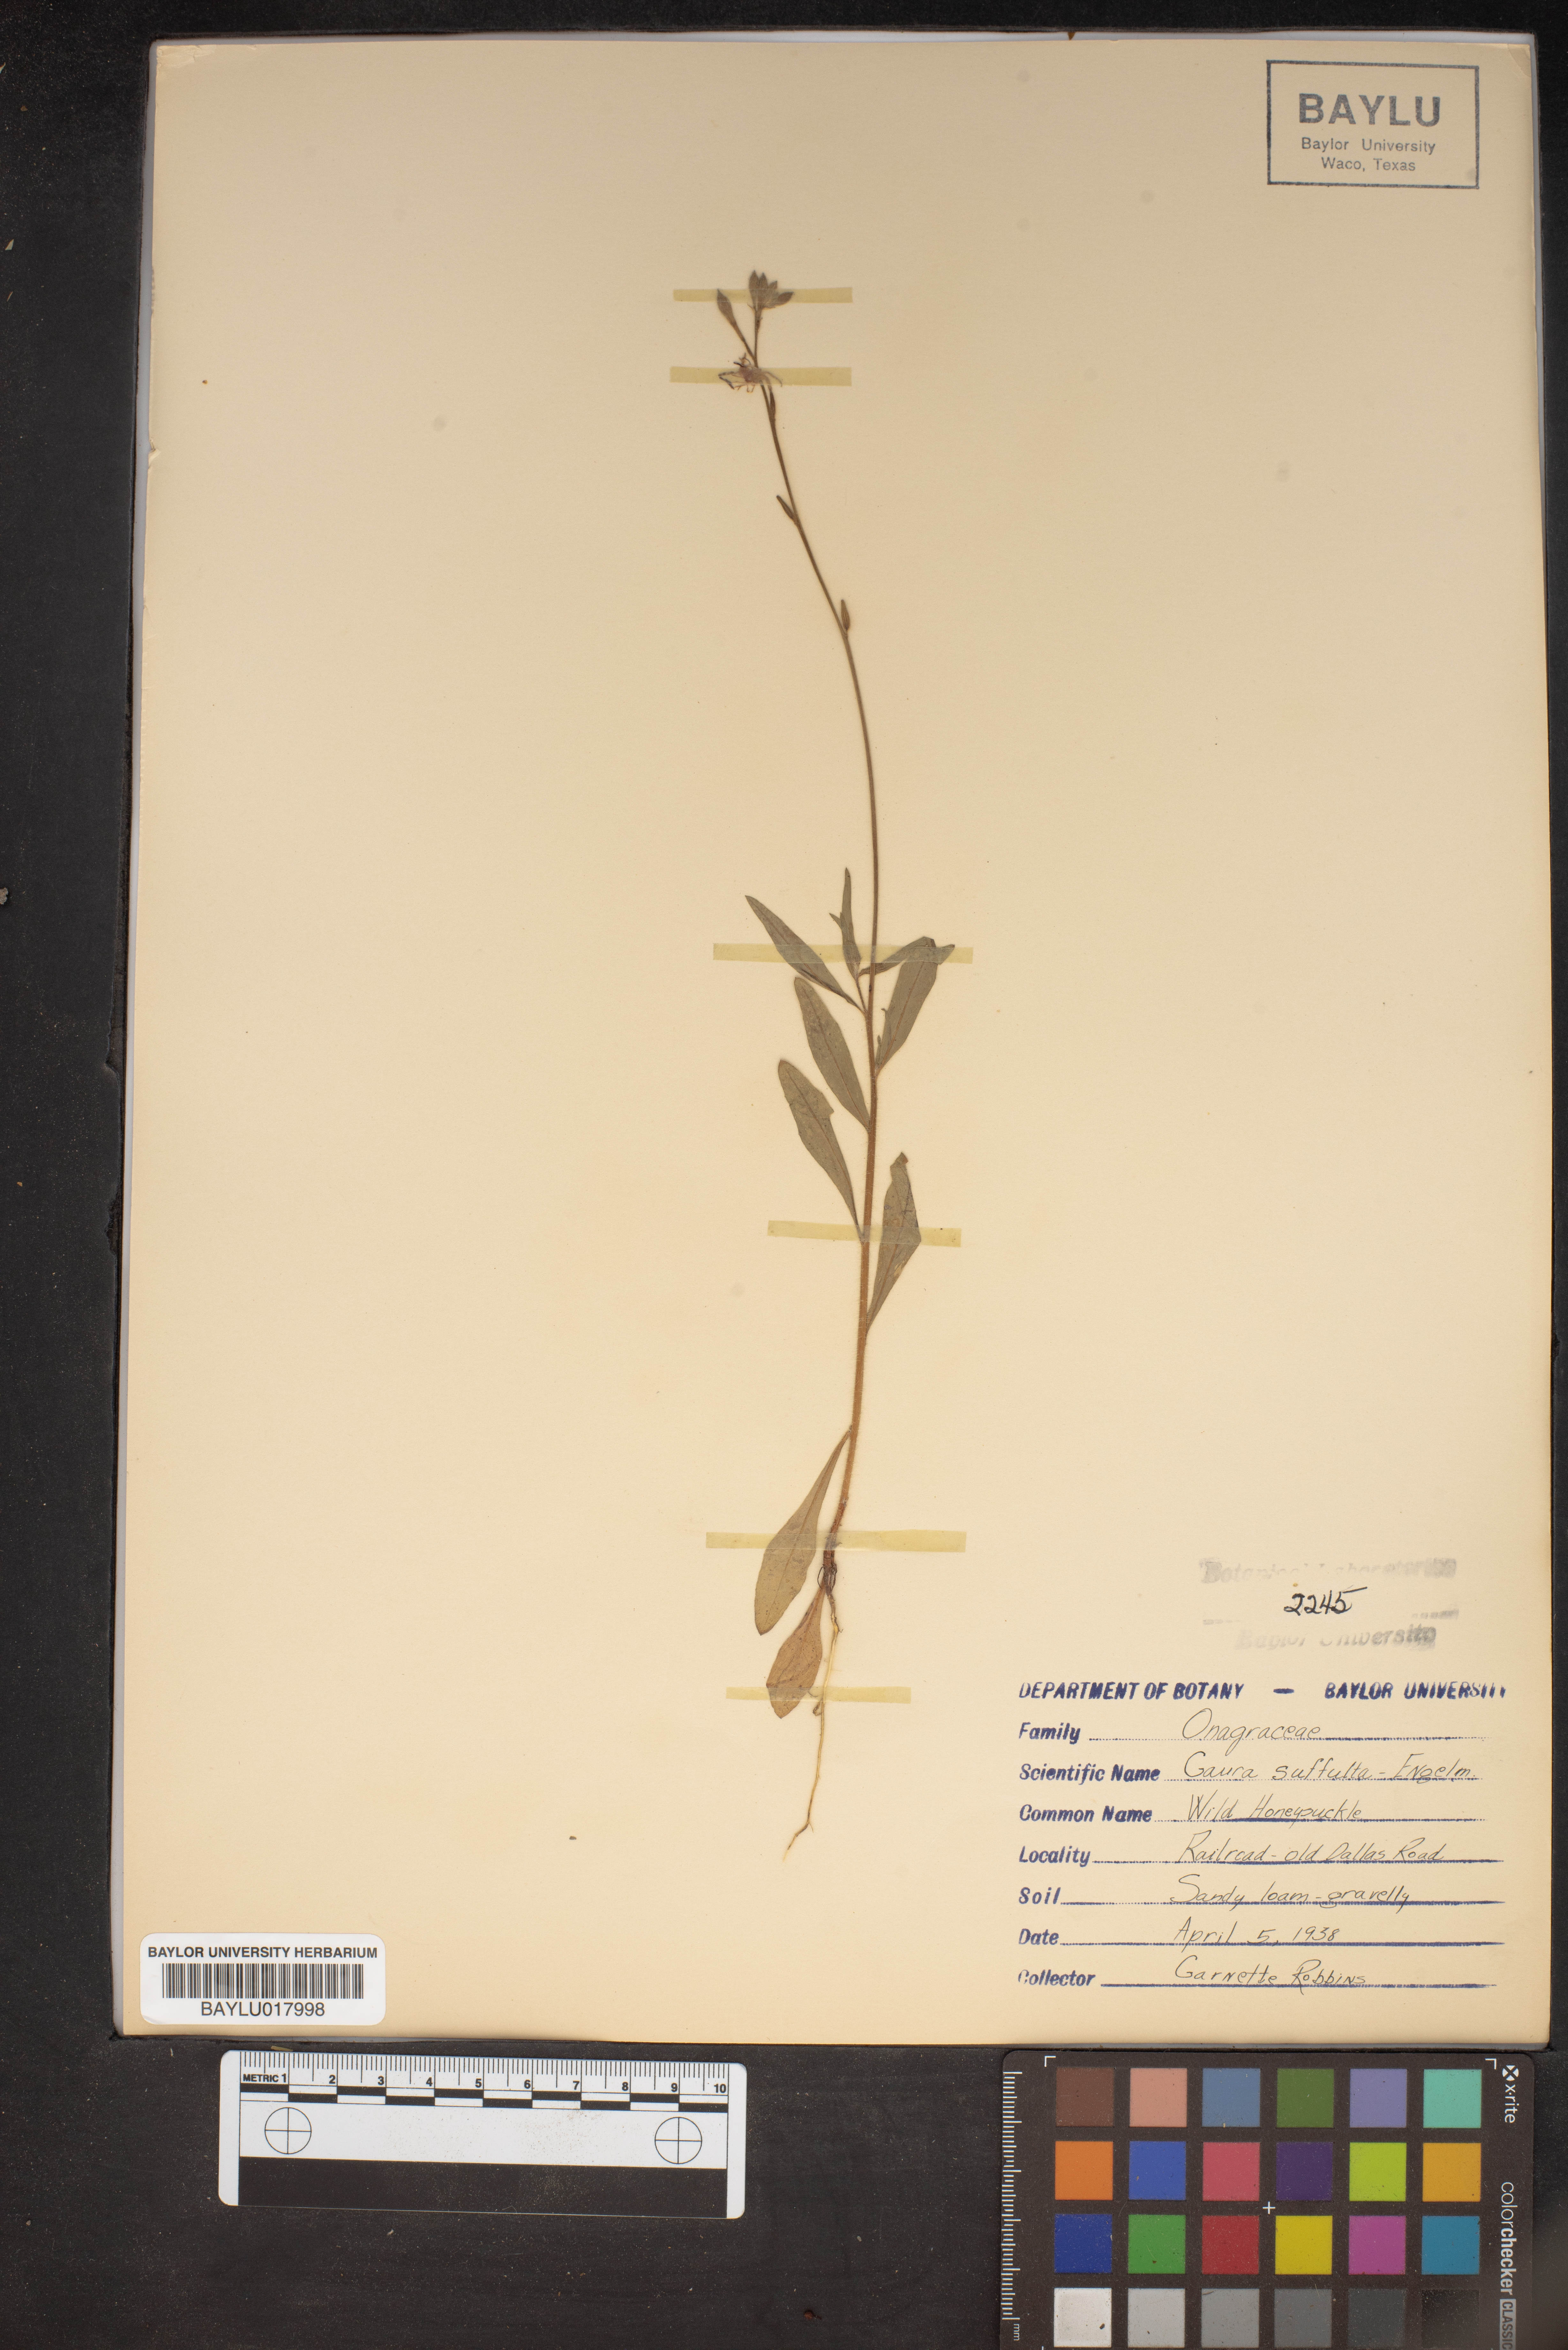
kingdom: Plantae
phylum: Tracheophyta
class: Magnoliopsida
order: Myrtales
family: Onagraceae
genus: Oenothera
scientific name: Oenothera Gaura suffulta
